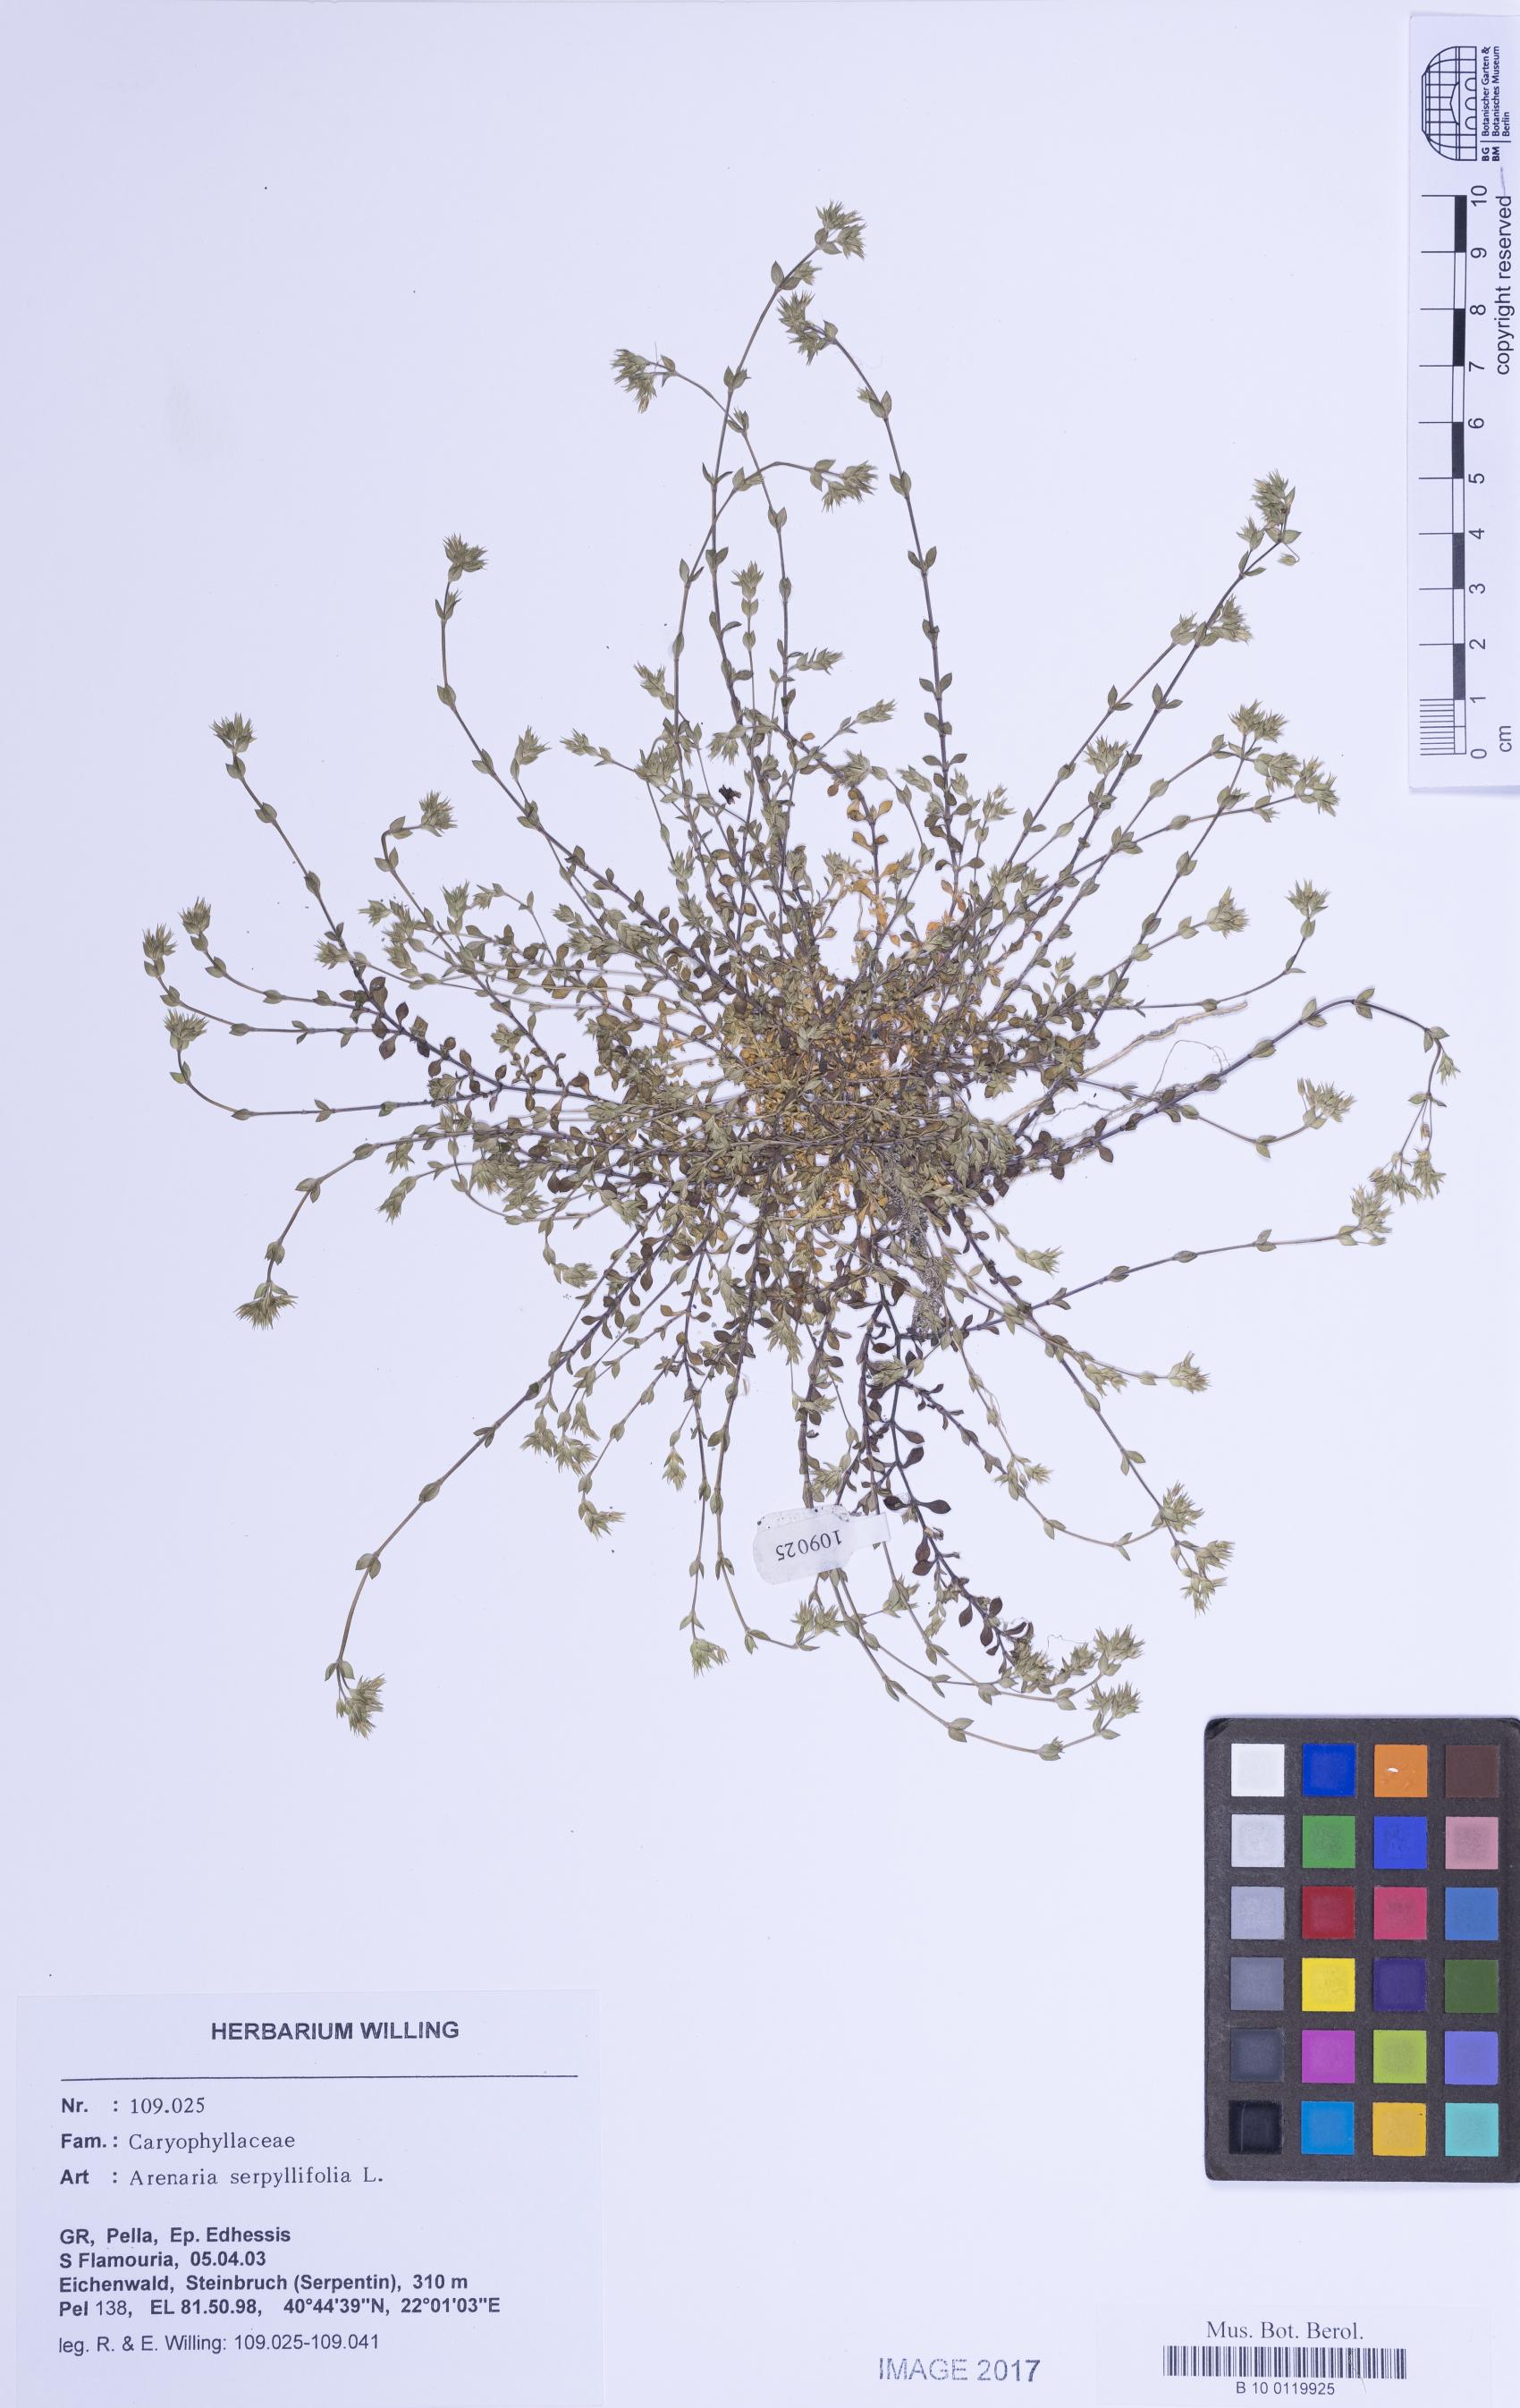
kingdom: Plantae
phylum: Tracheophyta
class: Magnoliopsida
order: Caryophyllales
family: Caryophyllaceae
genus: Arenaria
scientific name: Arenaria serpyllifolia
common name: Thyme-leaved sandwort
